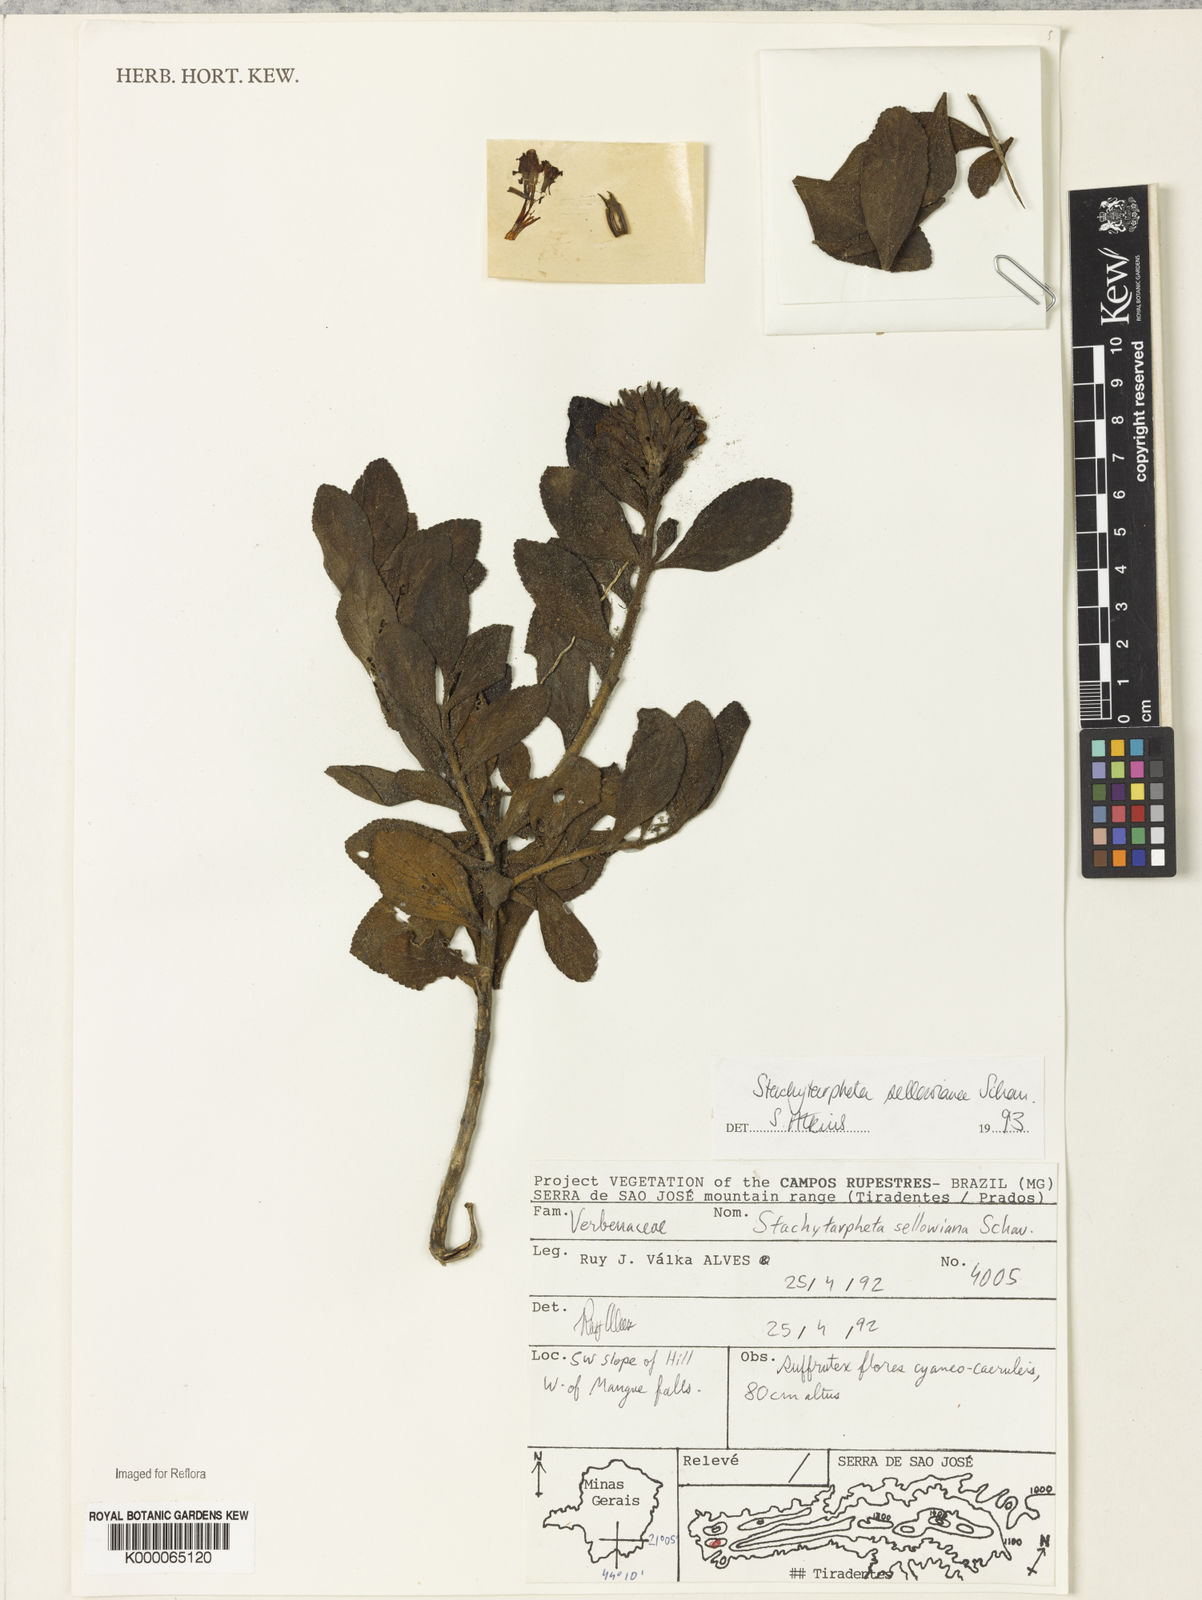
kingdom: Plantae
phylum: Tracheophyta
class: Magnoliopsida
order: Lamiales
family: Verbenaceae
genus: Stachytarpheta
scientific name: Stachytarpheta sellowiana
